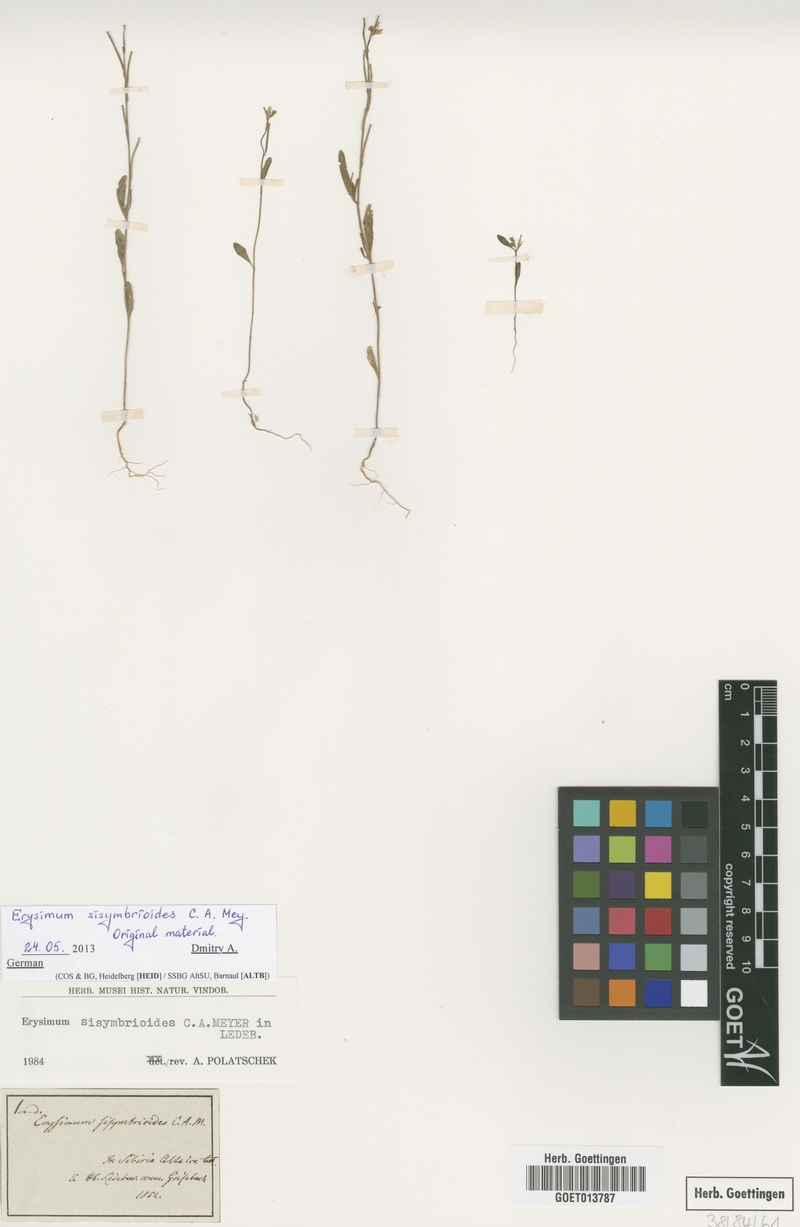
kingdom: Plantae
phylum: Tracheophyta
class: Magnoliopsida
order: Brassicales
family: Brassicaceae
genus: Erysimum
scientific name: Erysimum sisymbrioides
